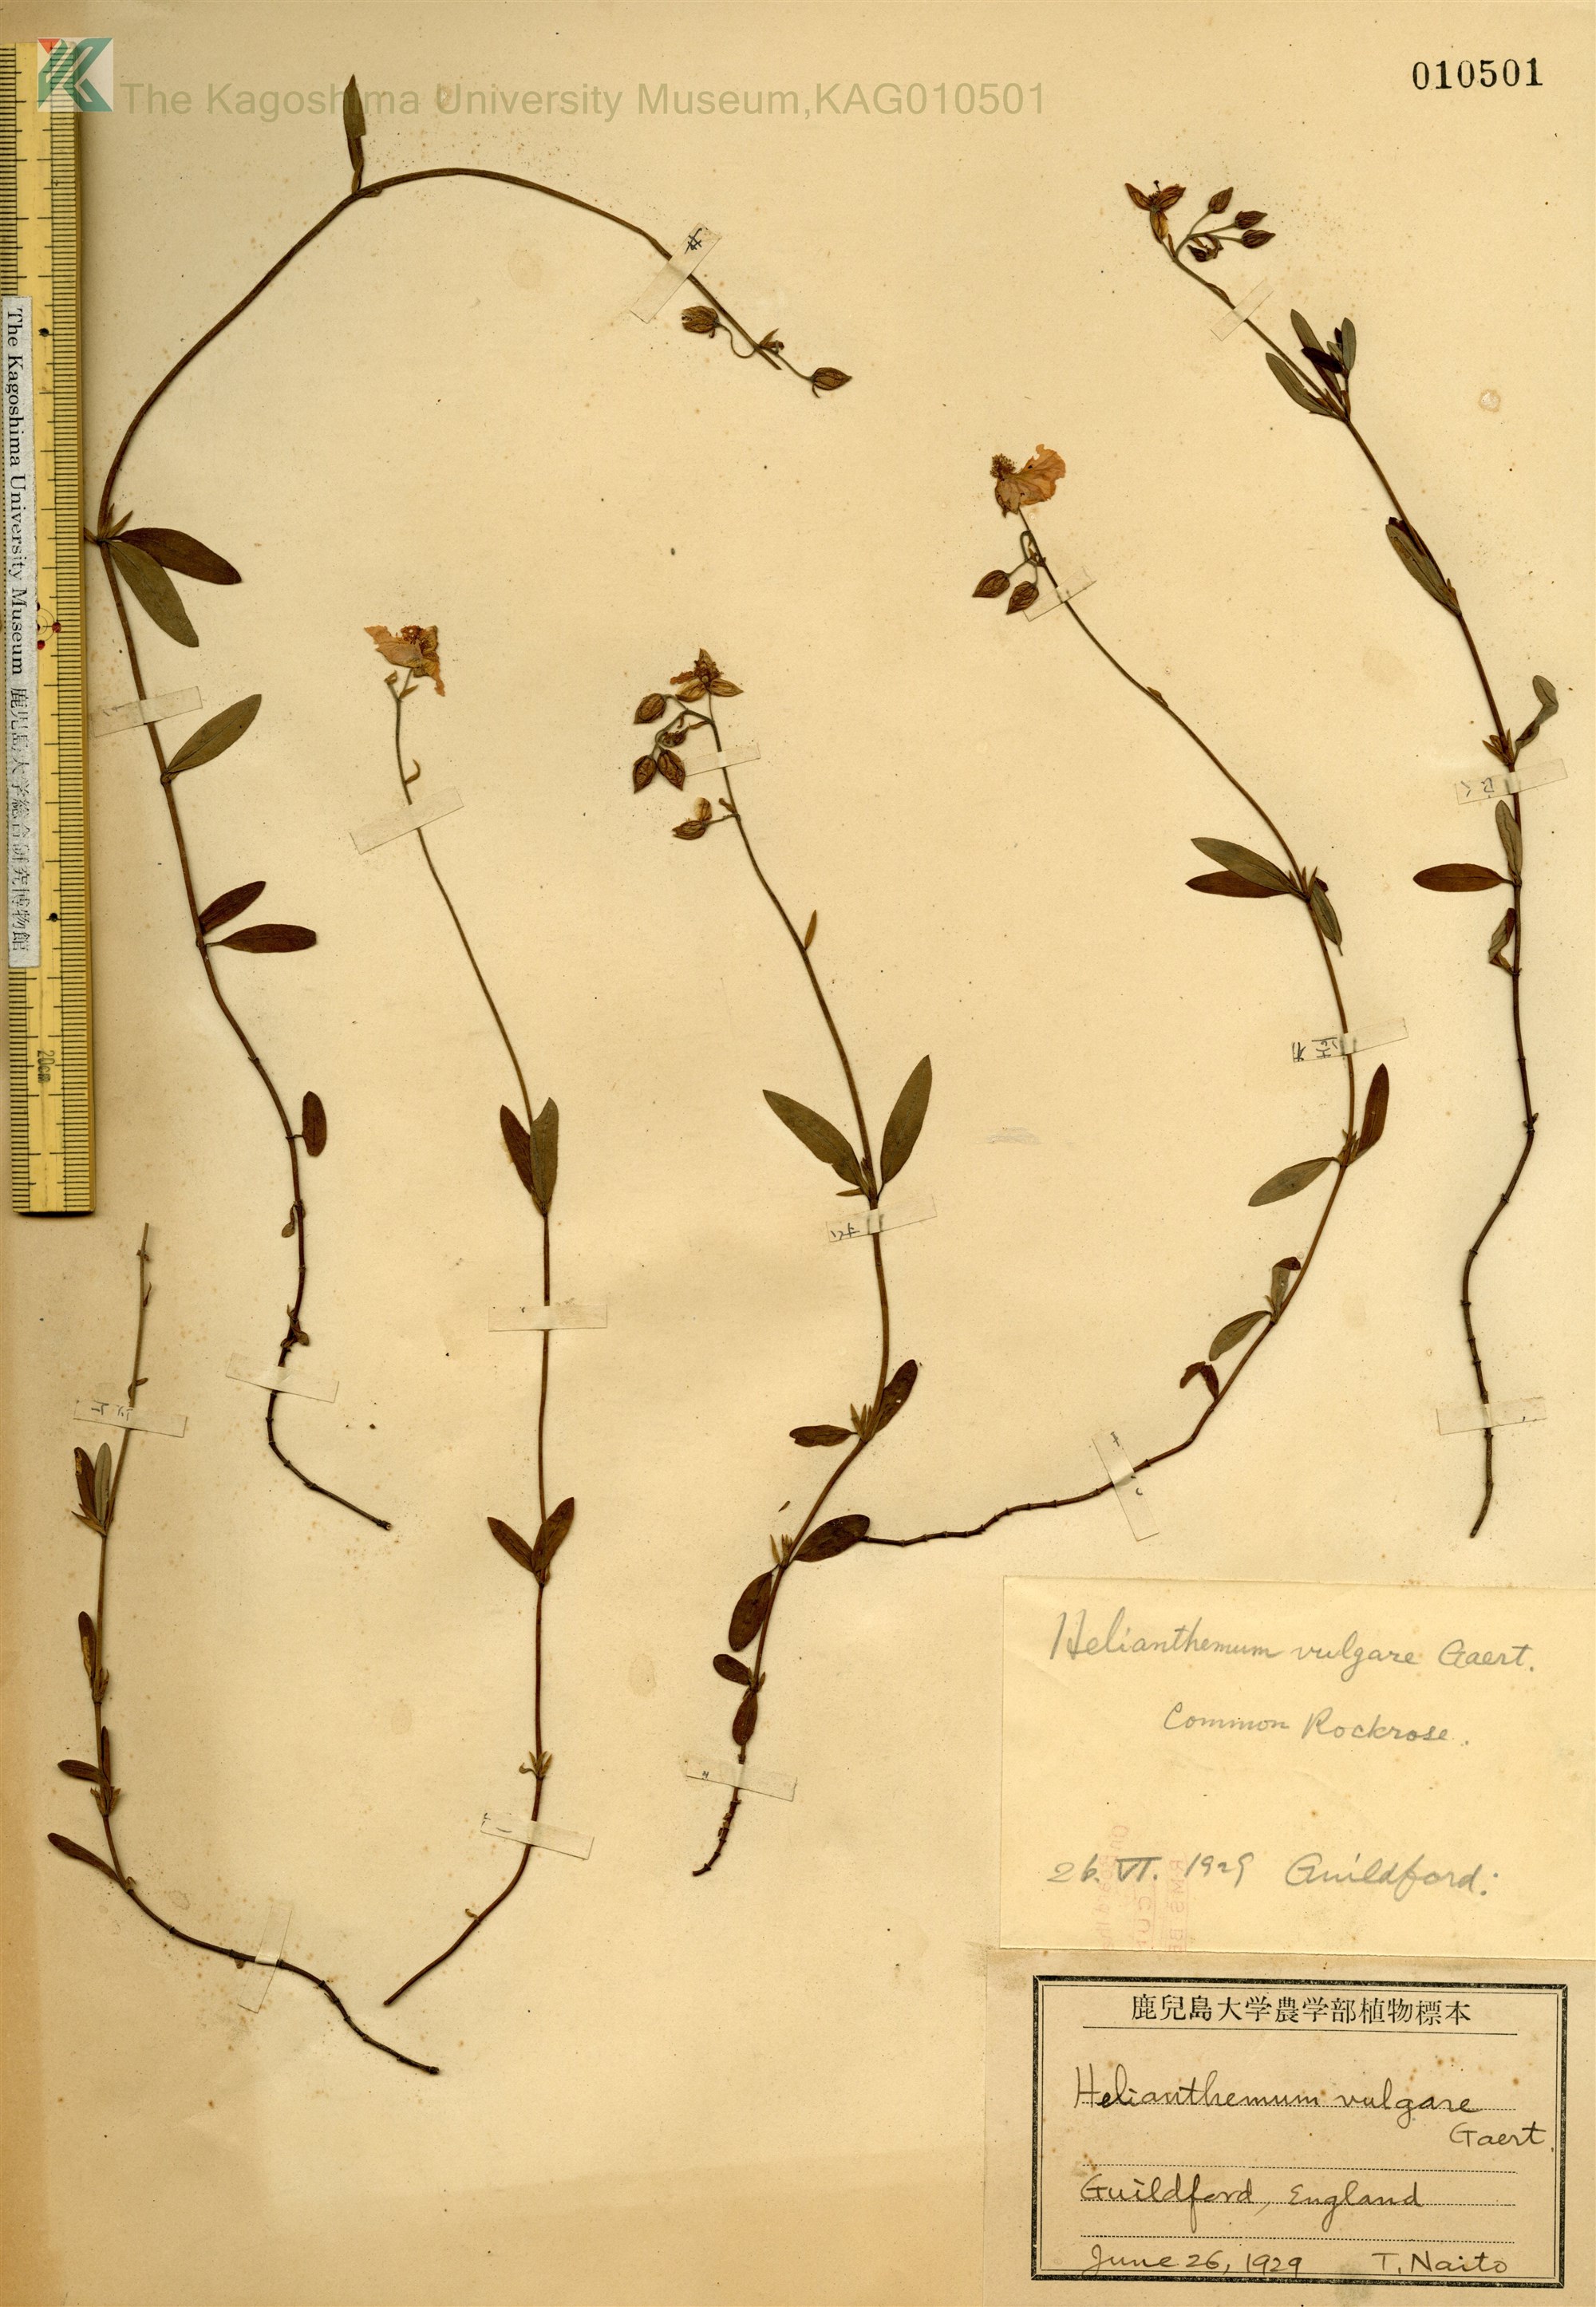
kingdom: Plantae
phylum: Tracheophyta
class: Magnoliopsida
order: Malvales
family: Cistaceae
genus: Helianthemum
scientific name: Helianthemum nummularium
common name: Common rock-rose
